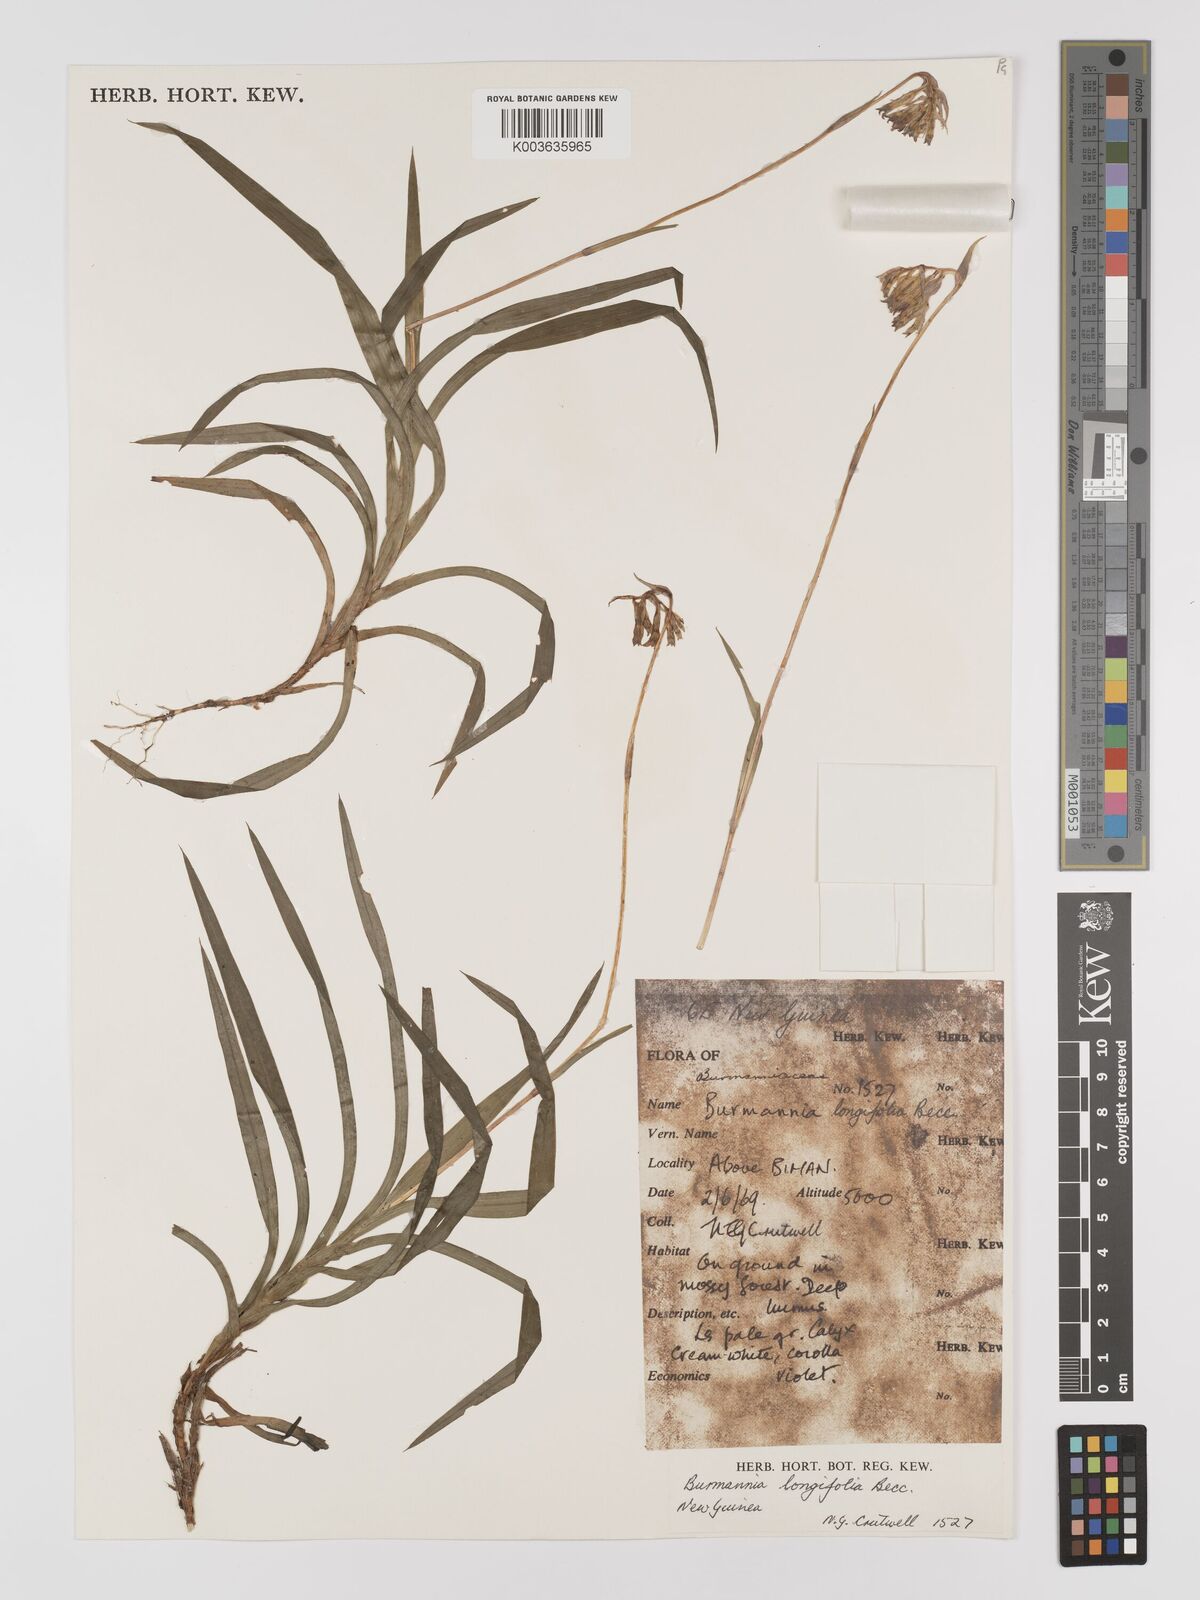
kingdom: Plantae
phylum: Tracheophyta
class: Liliopsida
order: Dioscoreales
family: Burmanniaceae
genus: Burmannia
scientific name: Burmannia longifolia
